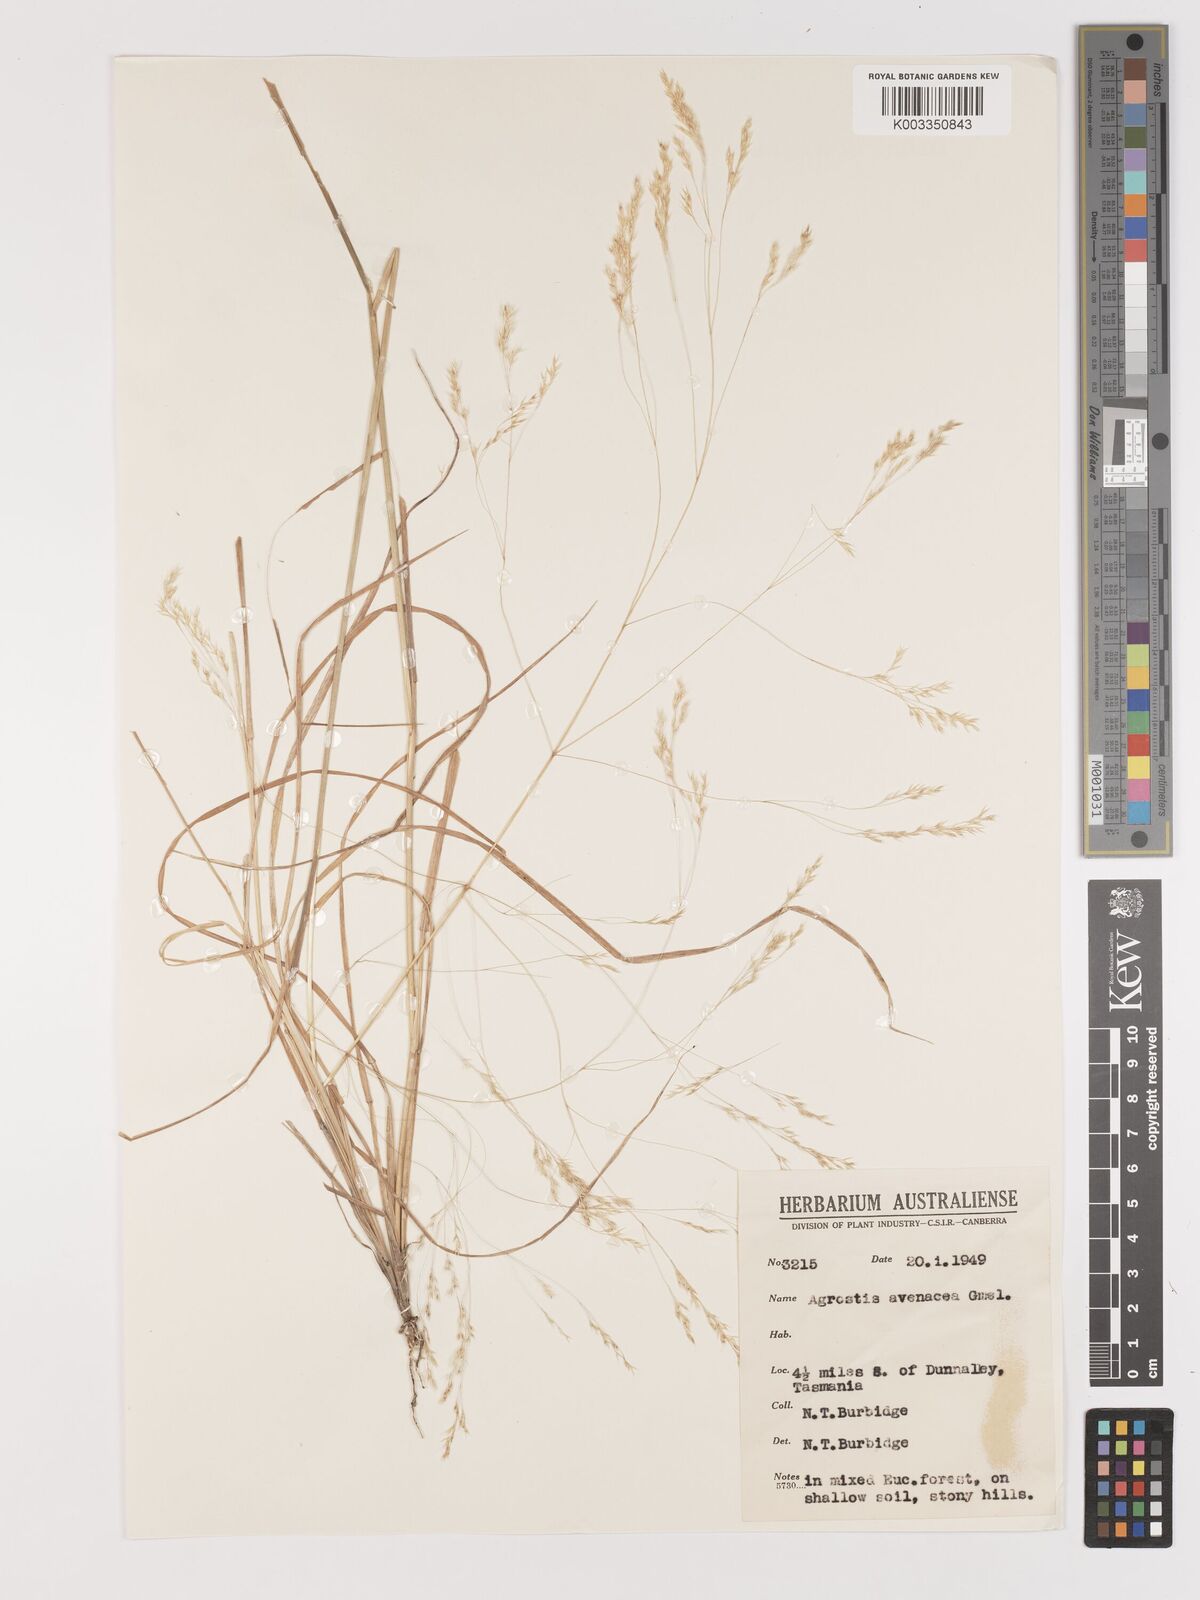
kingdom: Plantae
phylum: Tracheophyta
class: Liliopsida
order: Poales
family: Poaceae
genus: Lachnagrostis
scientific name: Lachnagrostis filiformis
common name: Bentgrass
